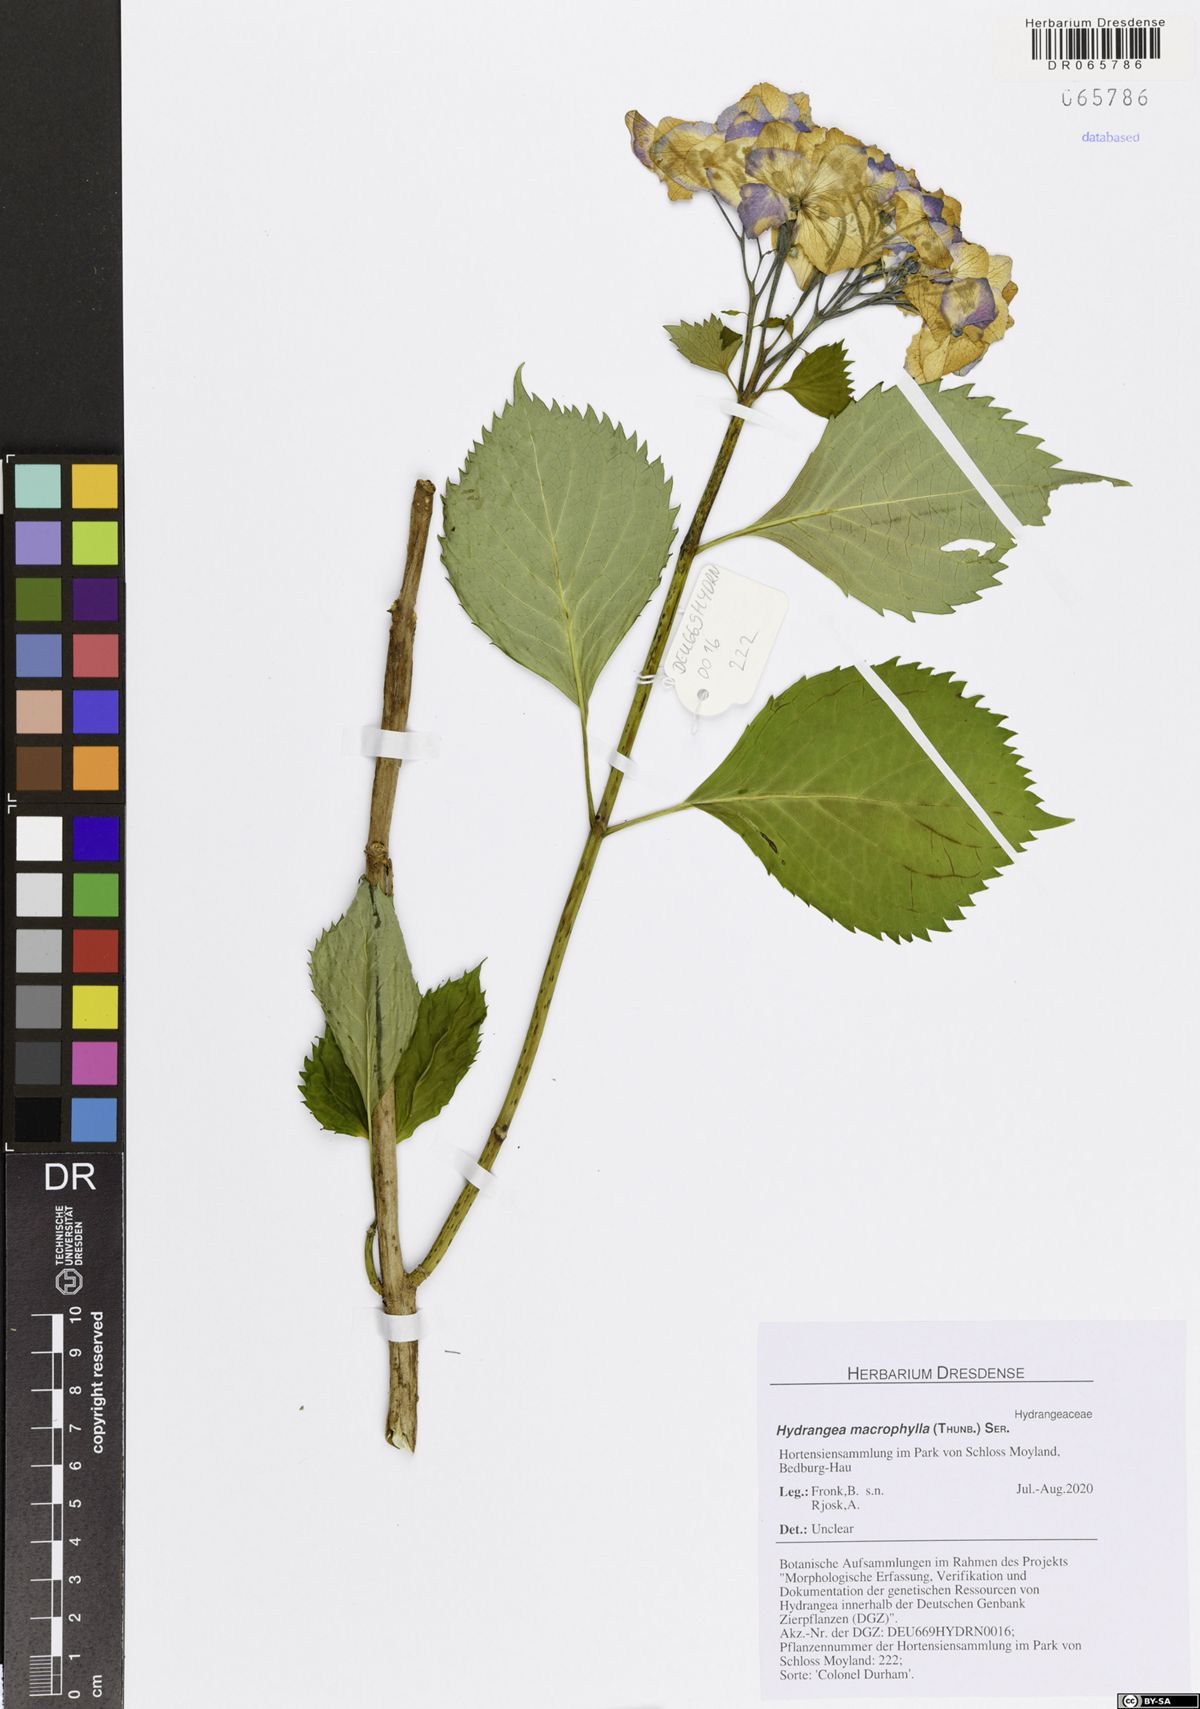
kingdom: Plantae
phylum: Tracheophyta
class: Magnoliopsida
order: Cornales
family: Hydrangeaceae
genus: Hydrangea
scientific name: Hydrangea macrophylla
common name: Hydrangea
